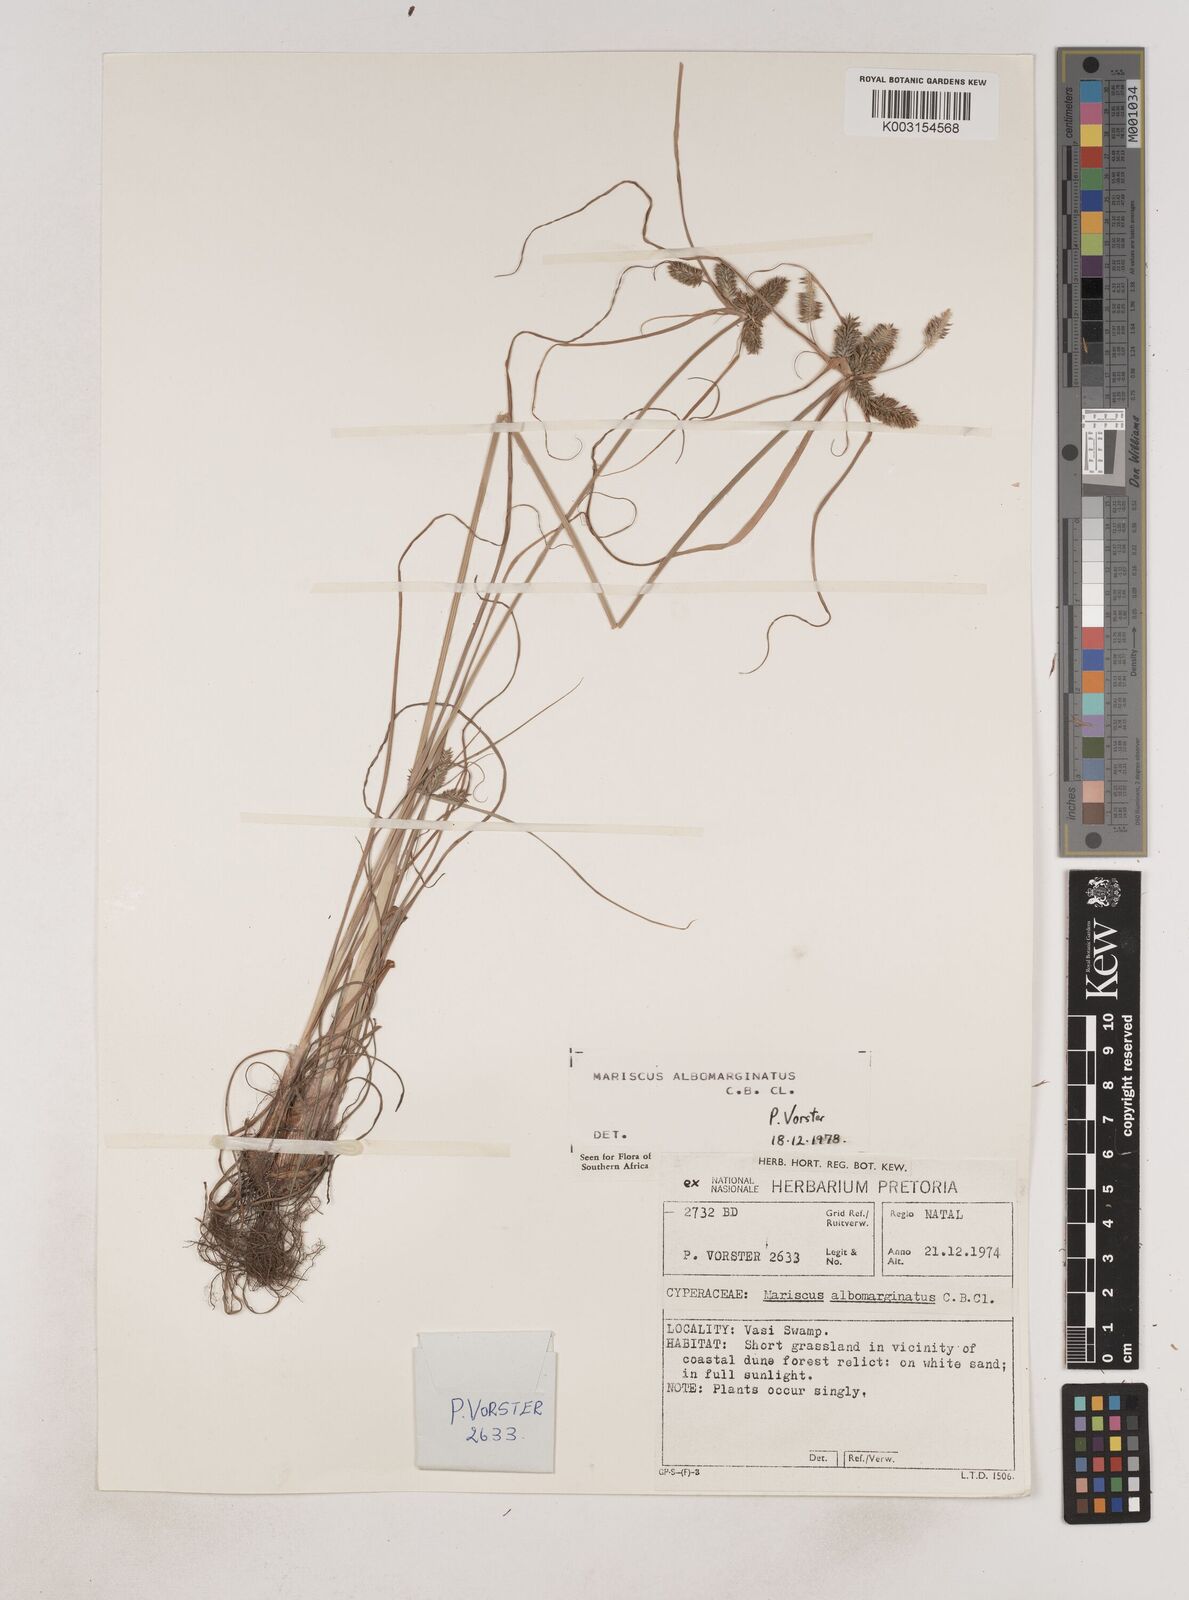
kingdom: Plantae
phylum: Tracheophyta
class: Liliopsida
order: Poales
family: Cyperaceae
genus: Cyperus
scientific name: Cyperus indecorus
